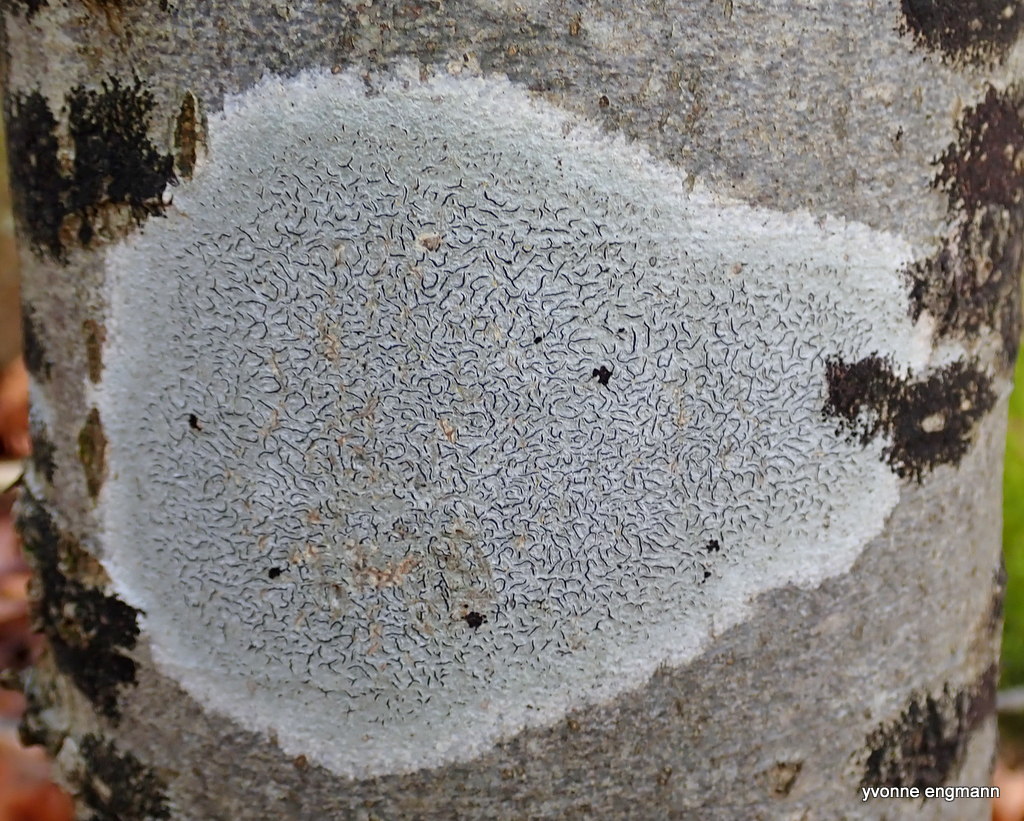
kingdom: Fungi
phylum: Ascomycota
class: Lecanoromycetes
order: Ostropales
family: Graphidaceae
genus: Graphis
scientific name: Graphis scripta
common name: almindelig skriftlav
